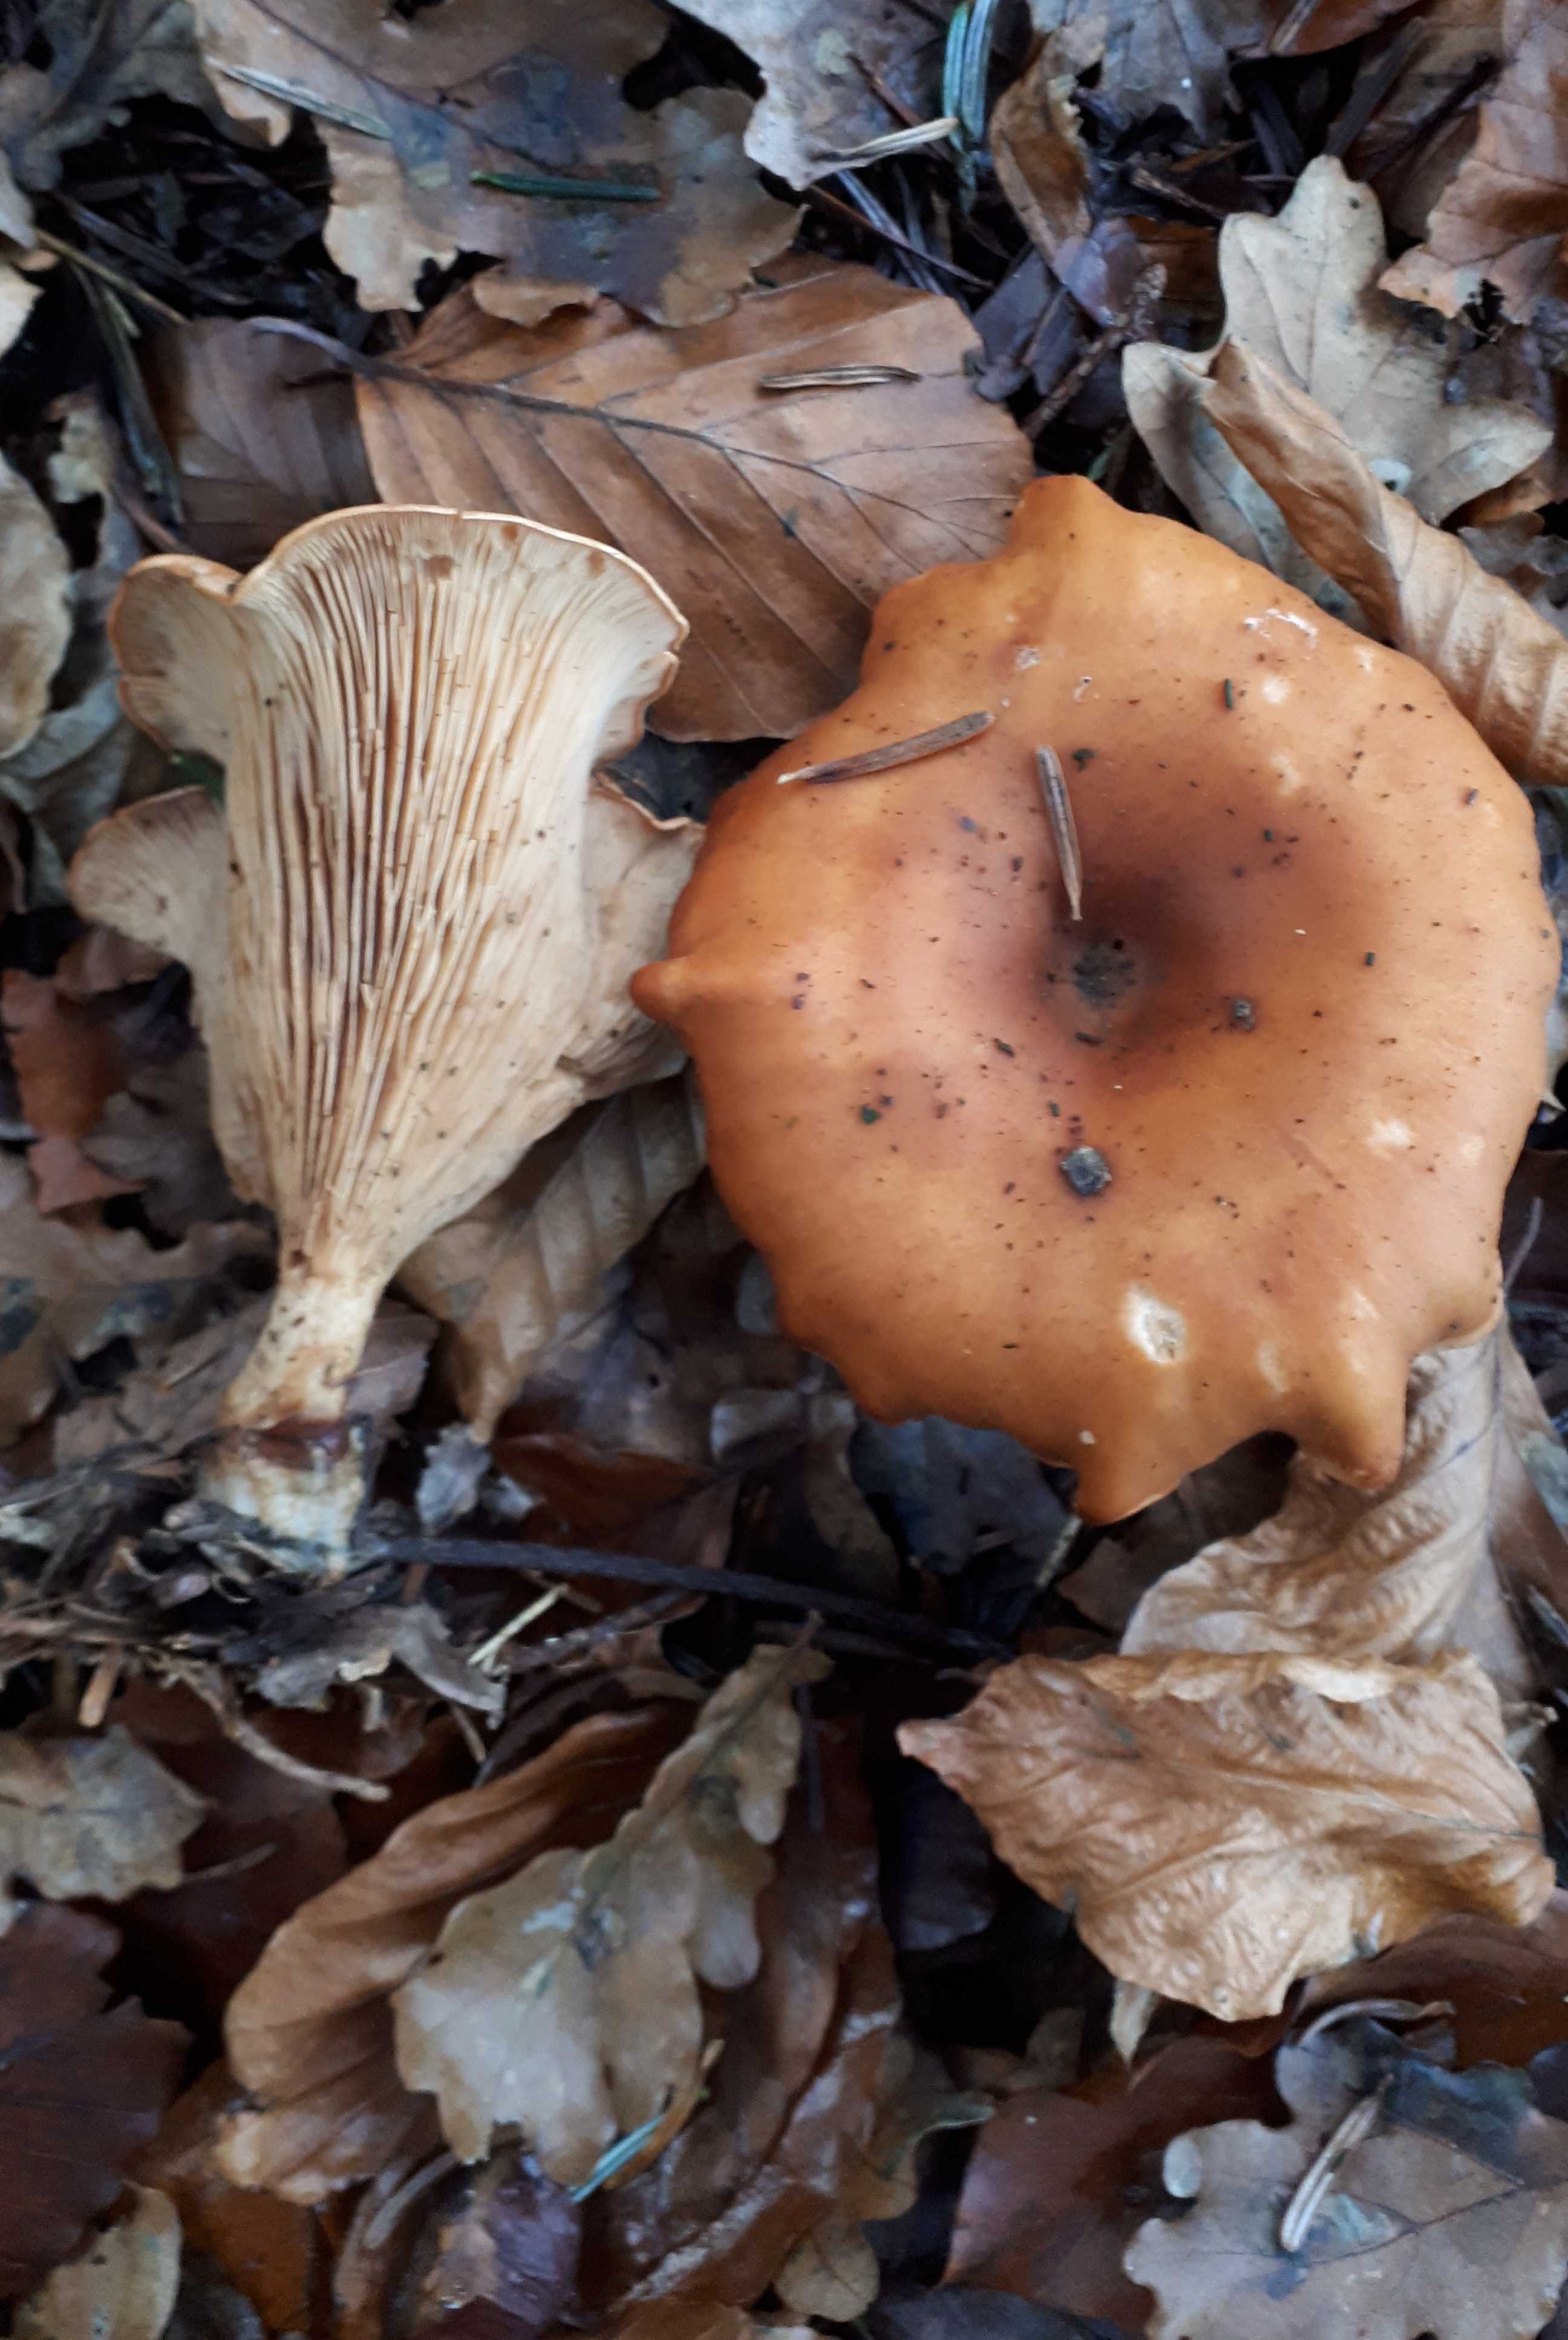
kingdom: Fungi
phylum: Basidiomycota
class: Agaricomycetes
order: Agaricales
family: Tricholomataceae
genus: Paralepista
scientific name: Paralepista flaccida
